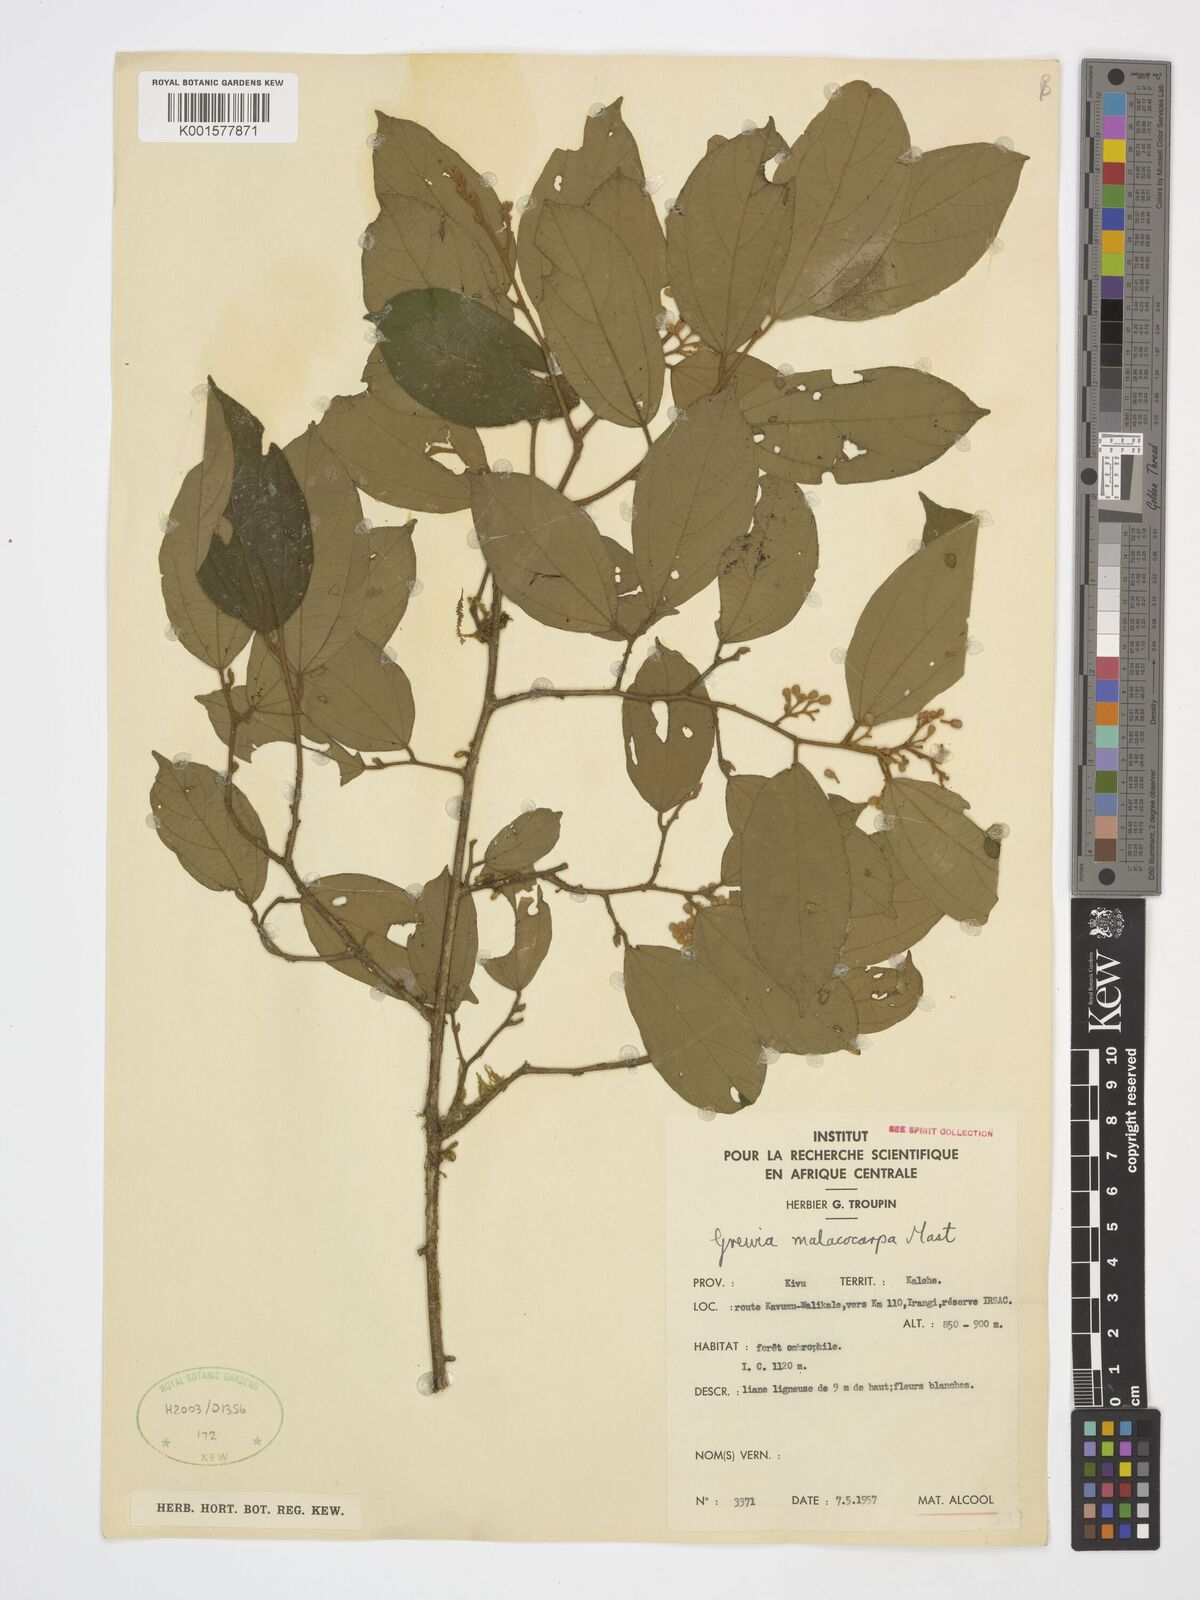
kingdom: Plantae
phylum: Tracheophyta
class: Magnoliopsida
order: Malvales
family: Malvaceae
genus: Microcos
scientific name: Microcos malacocarpa
